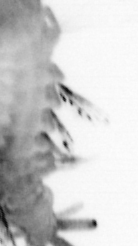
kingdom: Animalia
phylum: Annelida
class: Polychaeta
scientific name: Polychaeta
